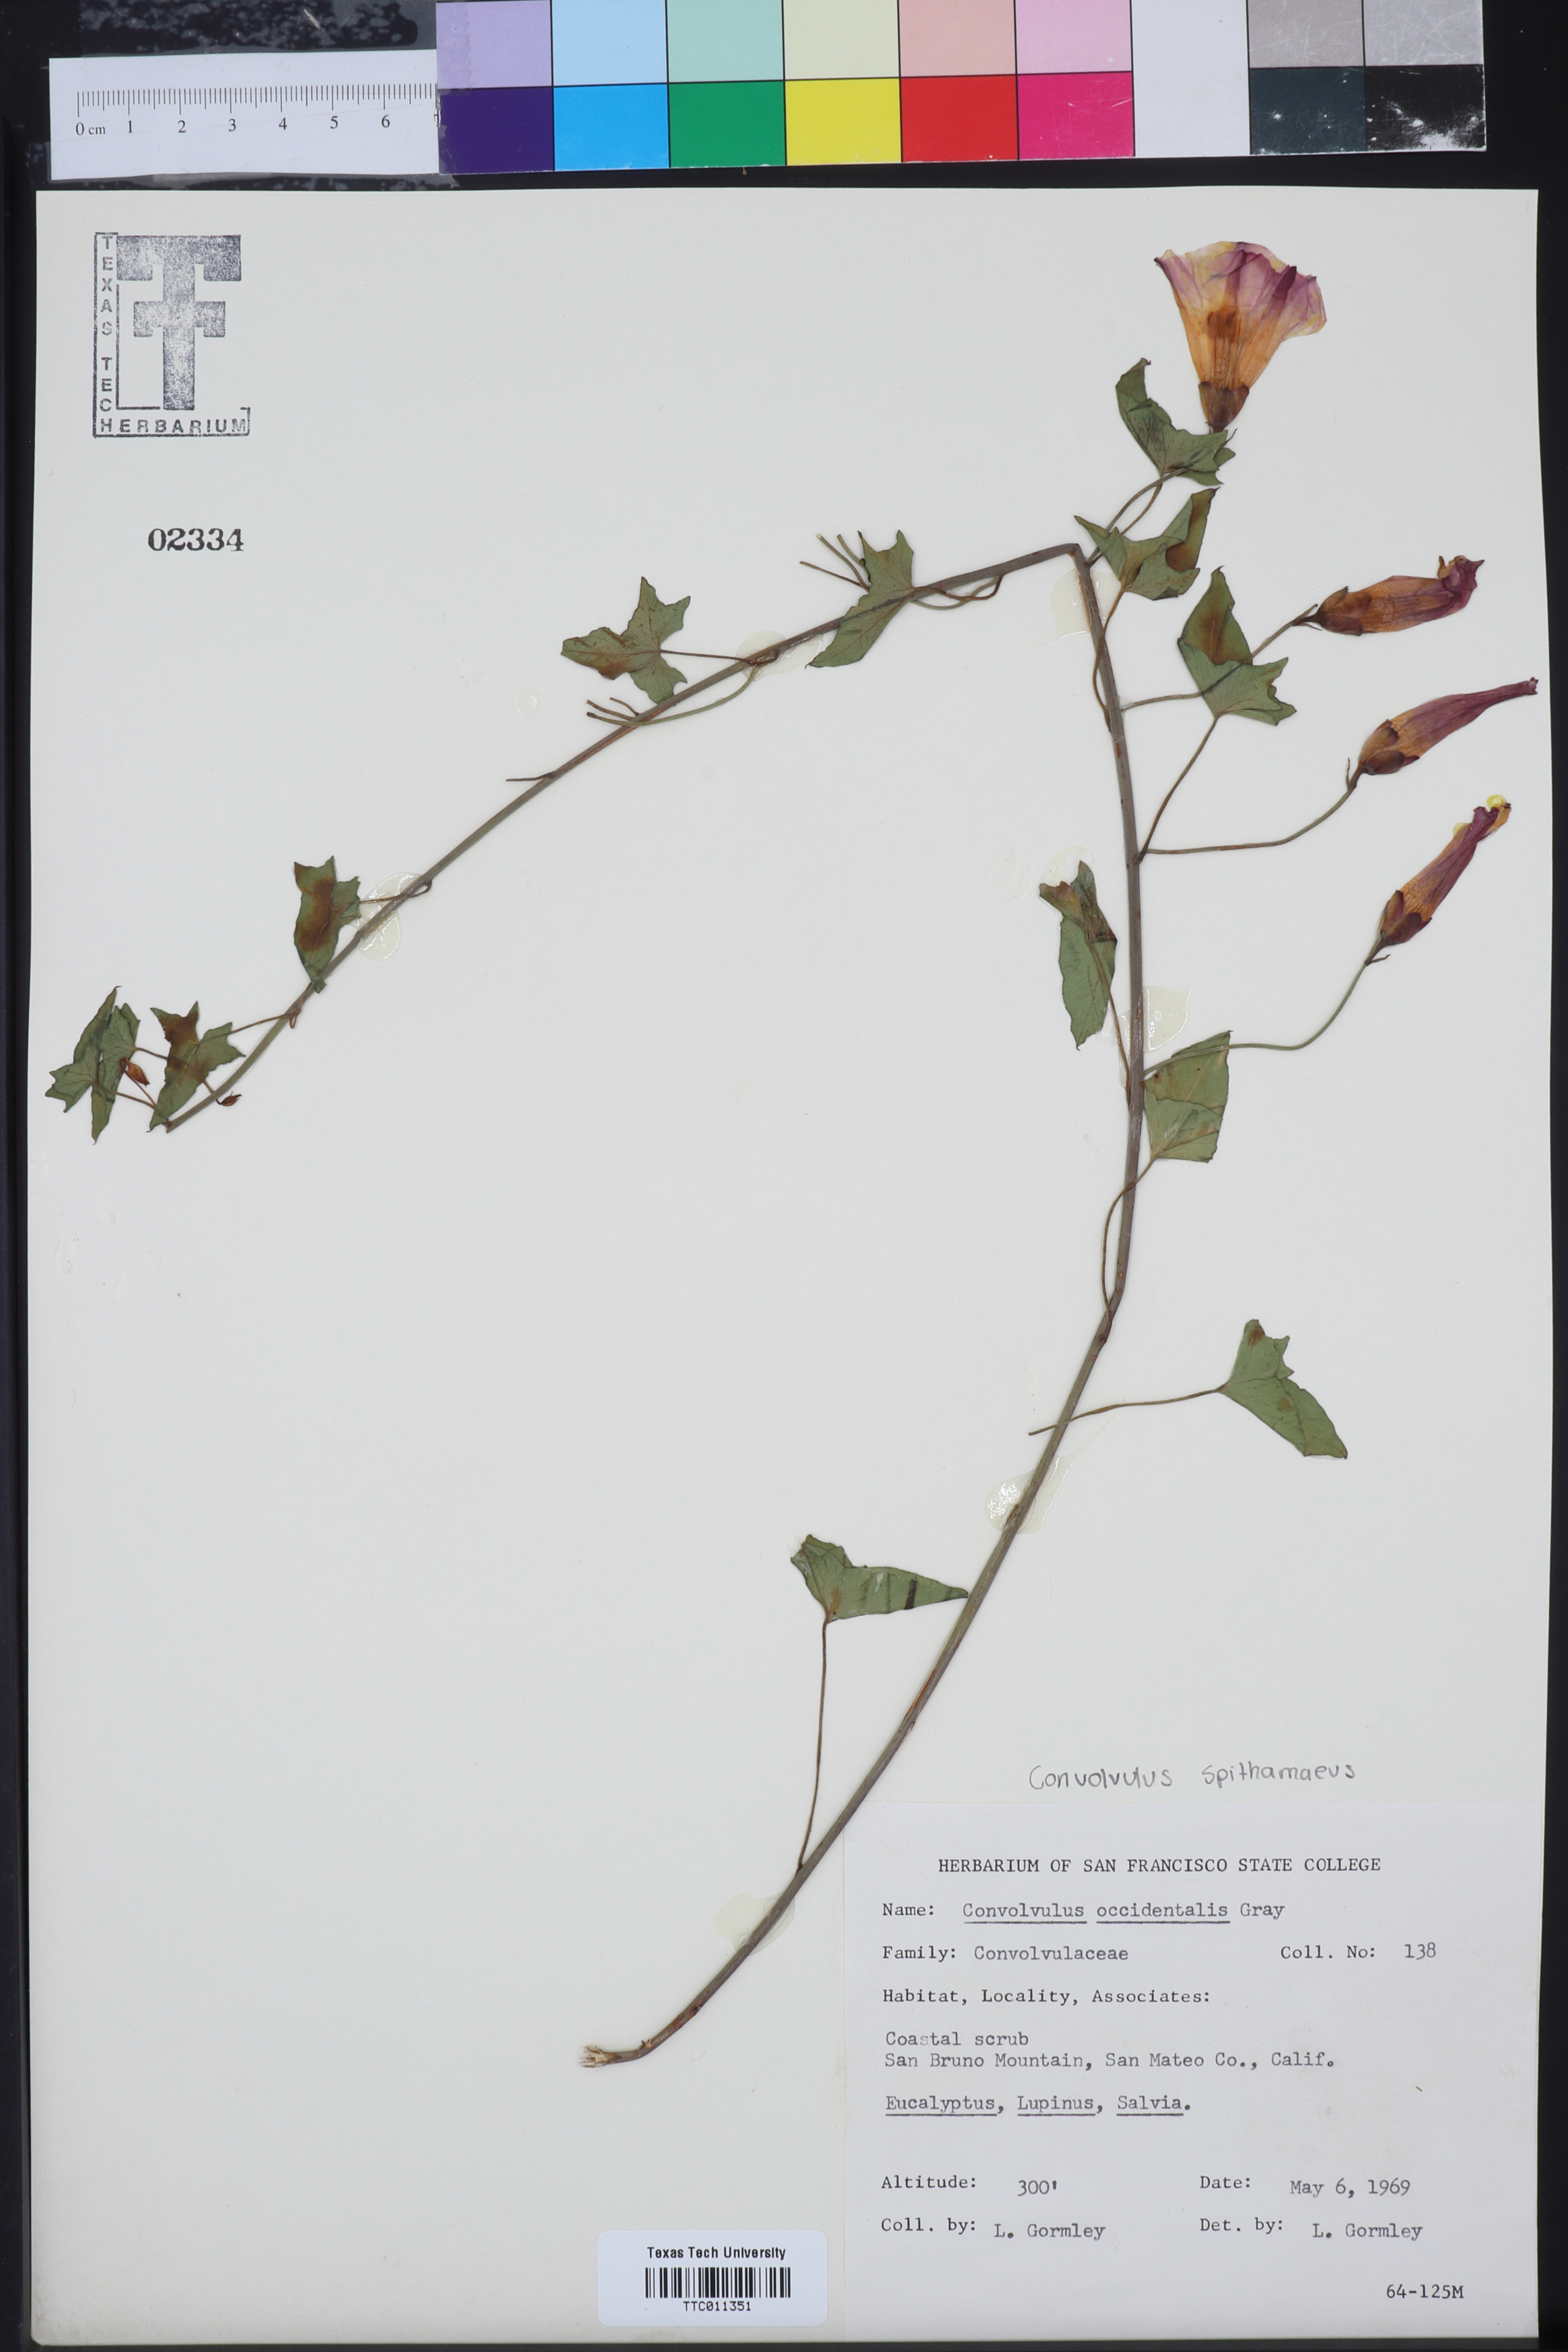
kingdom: Plantae
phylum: Tracheophyta
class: Magnoliopsida
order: Solanales
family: Convolvulaceae
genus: Calystegia
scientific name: Calystegia macrostegia
